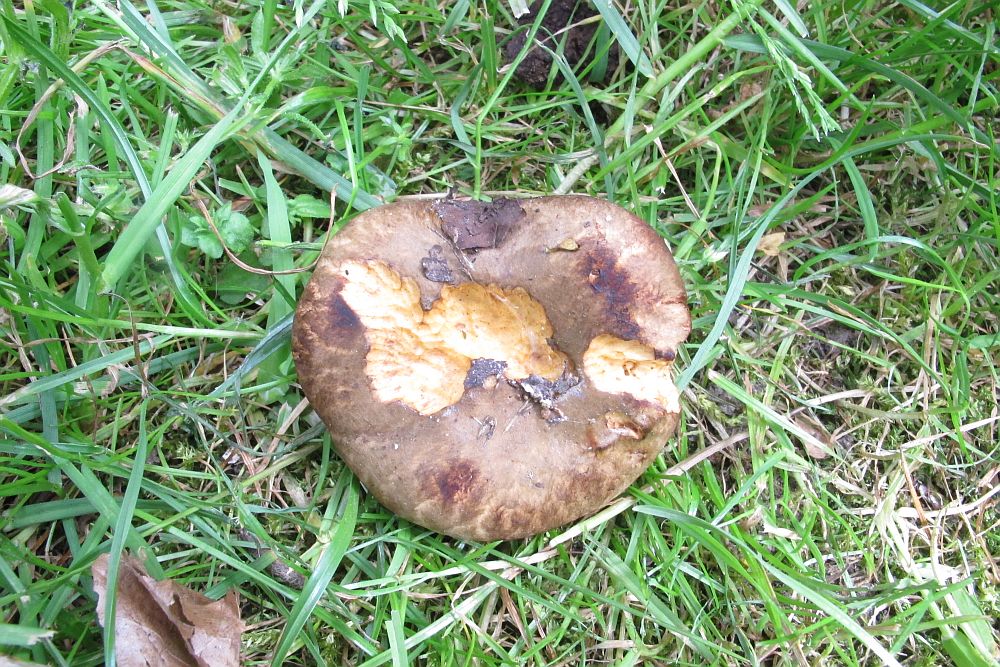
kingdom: Fungi
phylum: Basidiomycota
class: Agaricomycetes
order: Boletales
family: Paxillaceae
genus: Paxillus
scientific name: Paxillus rubicundulus
